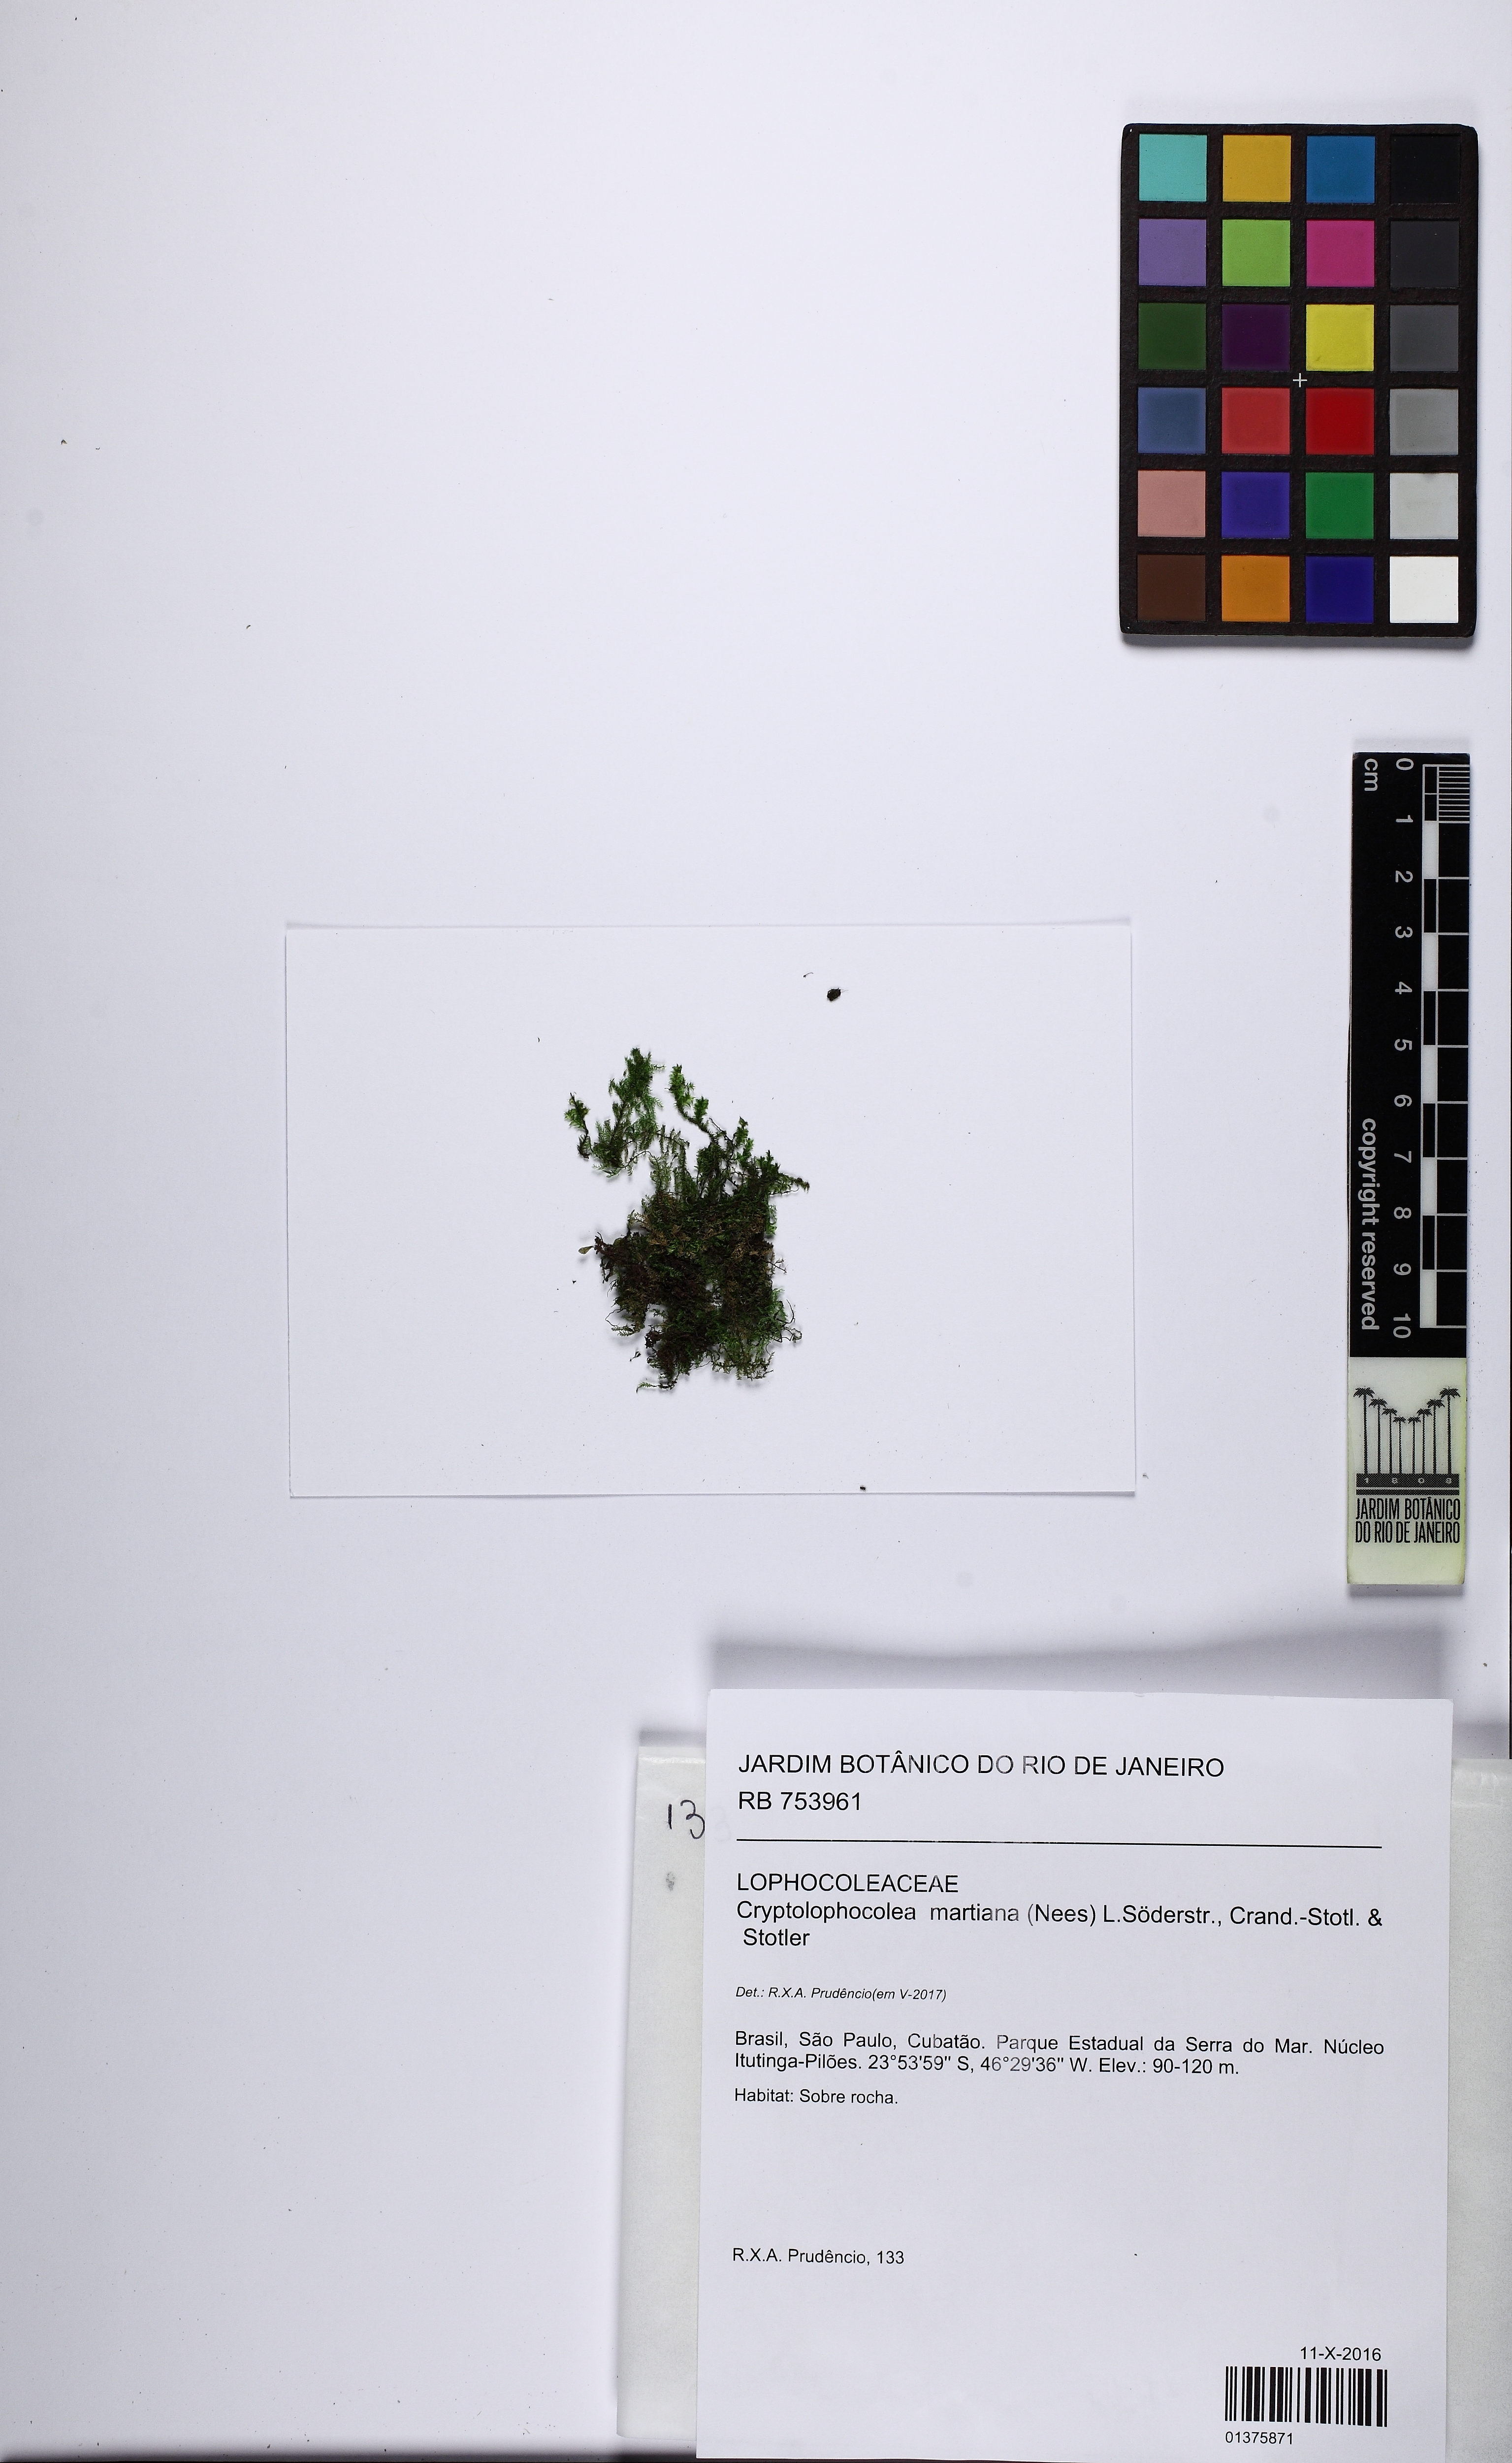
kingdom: Plantae
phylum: Marchantiophyta
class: Jungermanniopsida
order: Jungermanniales
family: Lophocoleaceae
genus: Cryptolophocolea
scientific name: Cryptolophocolea martiana
